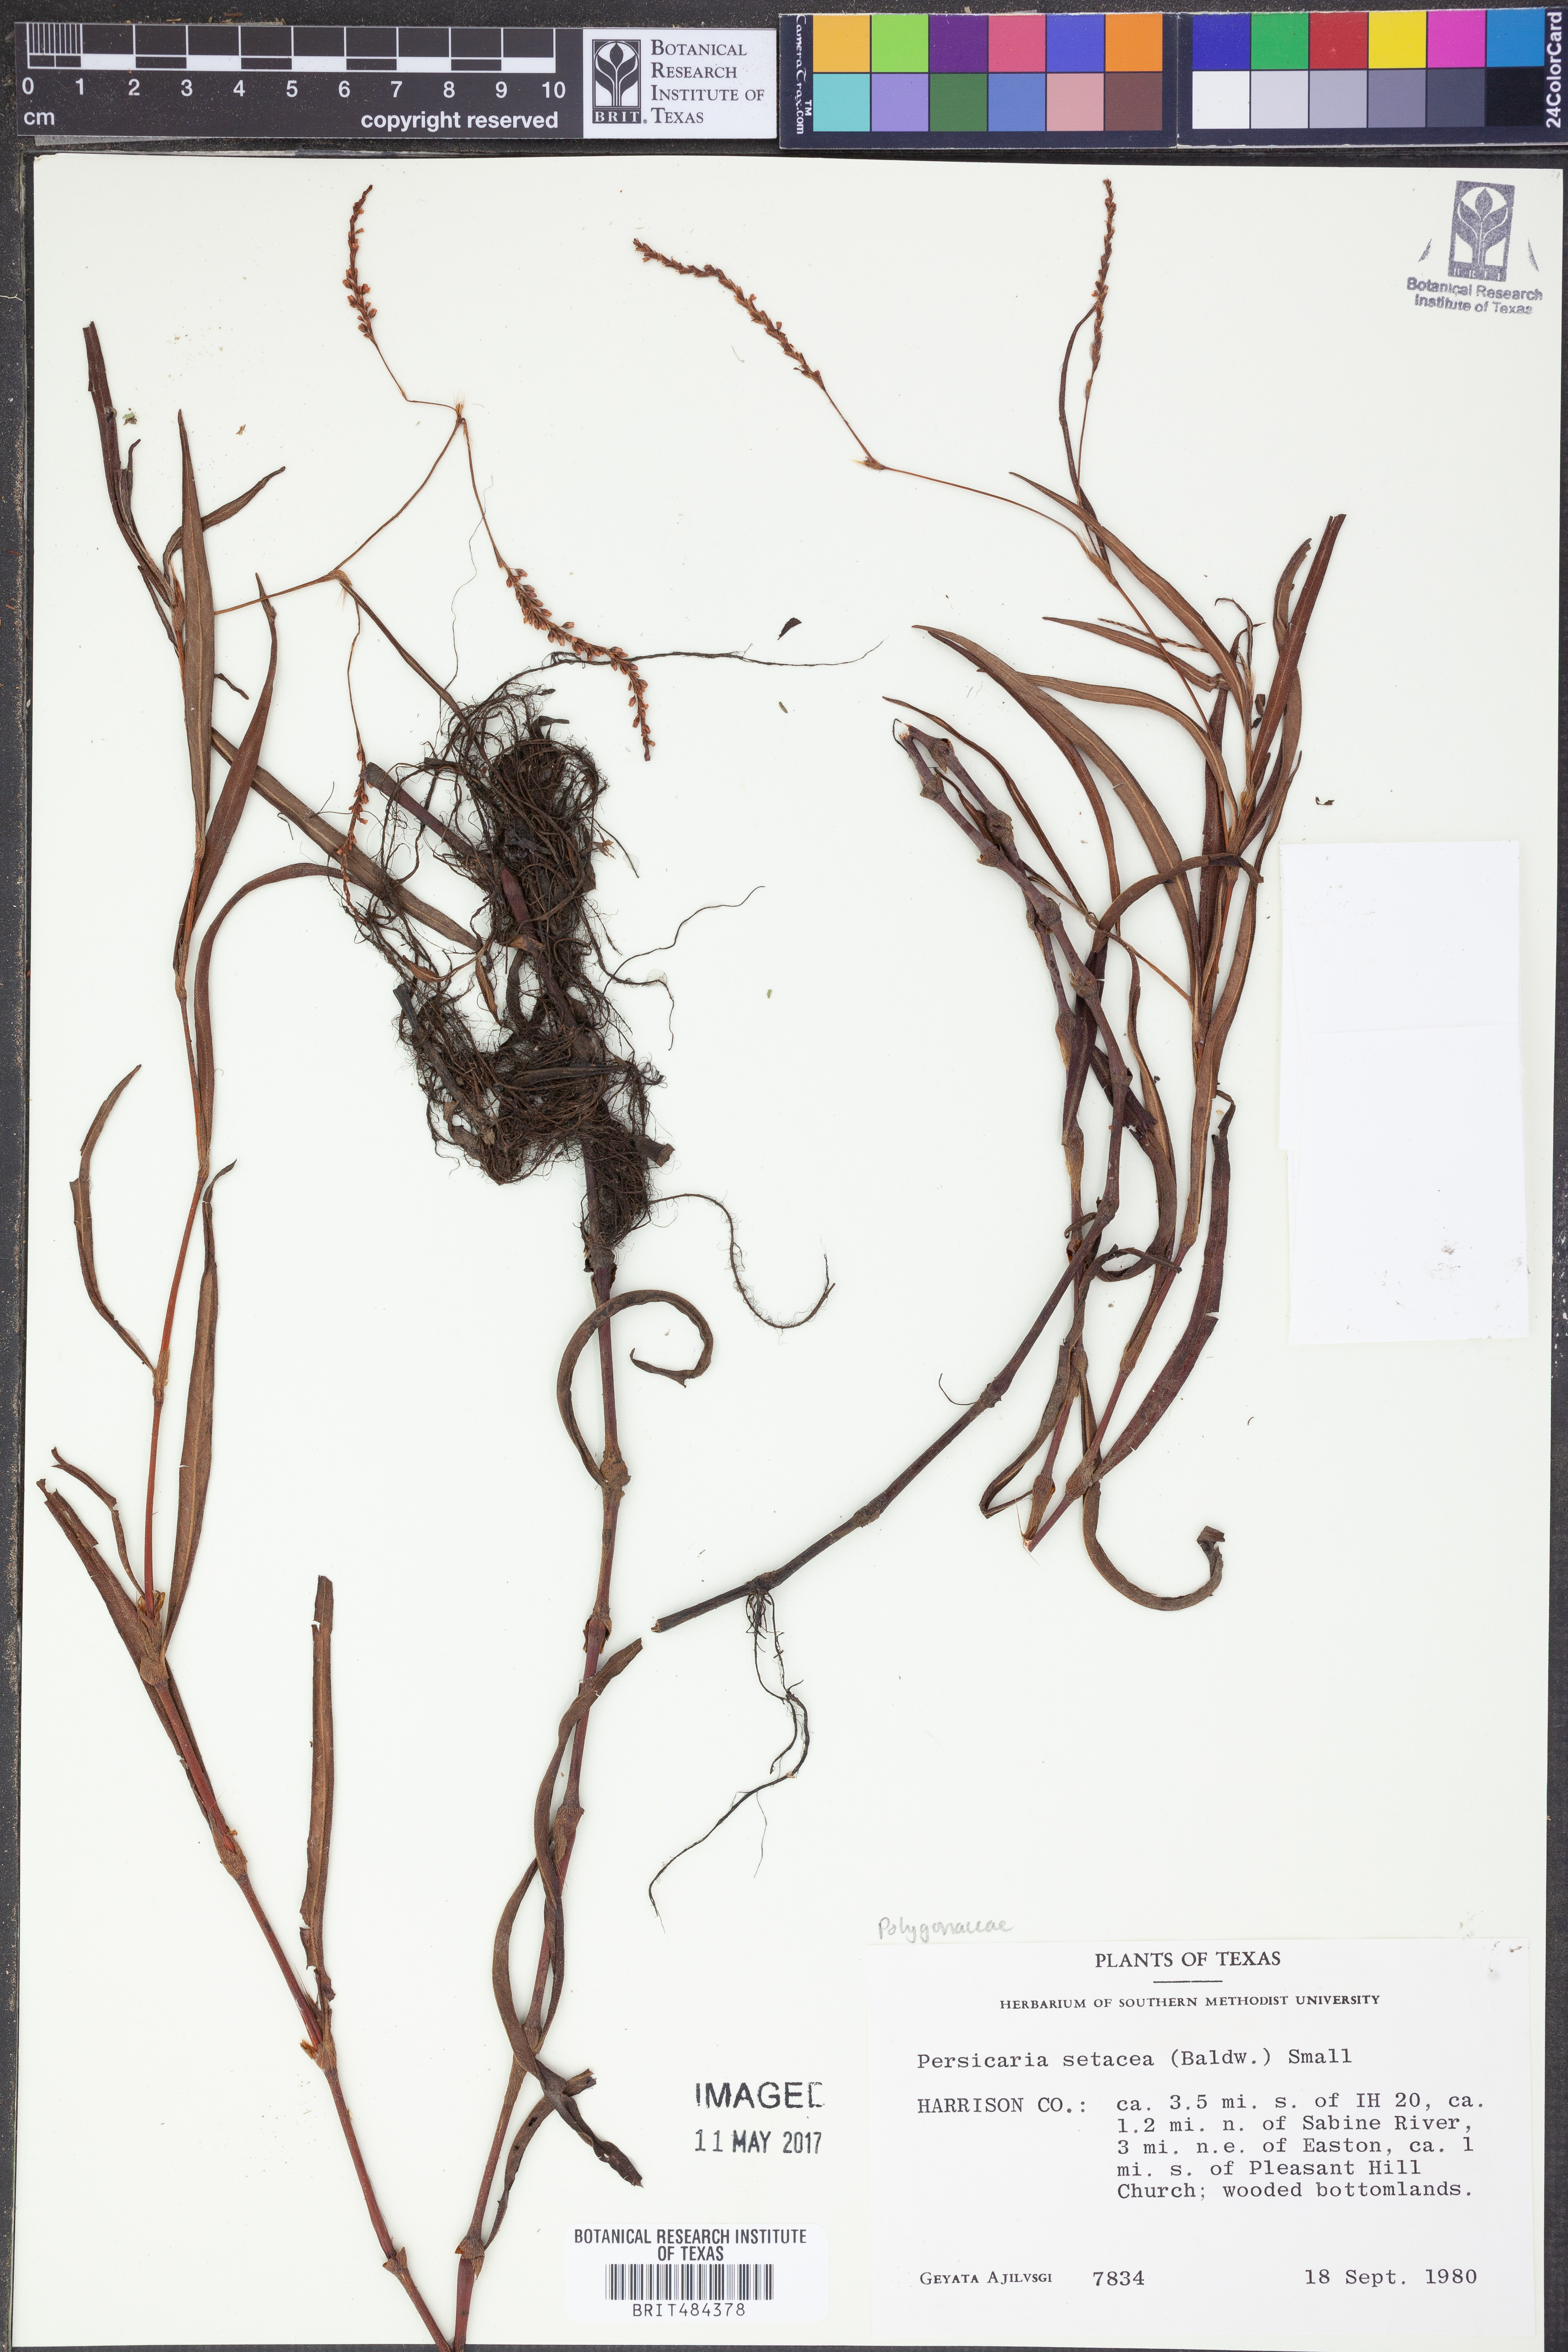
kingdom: Plantae
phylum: Tracheophyta
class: Magnoliopsida
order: Caryophyllales
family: Polygonaceae
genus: Persicaria
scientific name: Persicaria setacea
